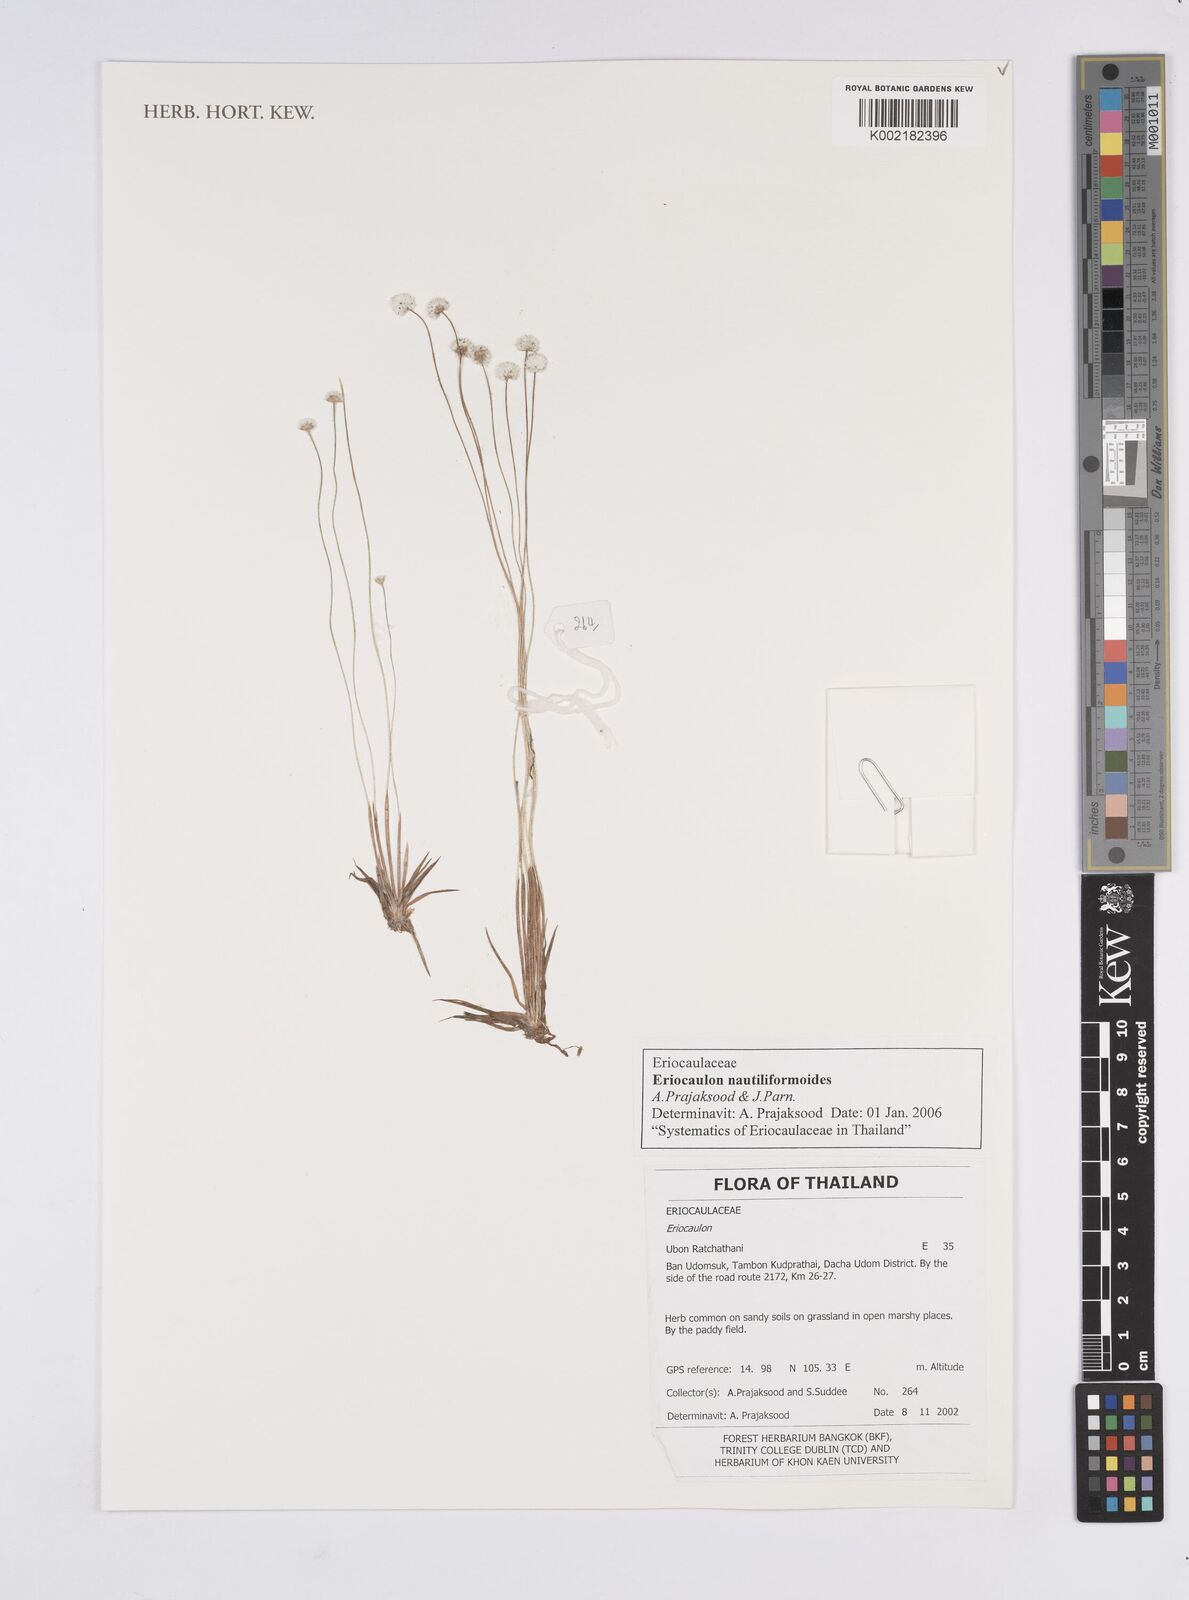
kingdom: Plantae
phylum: Tracheophyta
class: Liliopsida
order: Poales
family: Eriocaulaceae
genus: Eriocaulon
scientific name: Eriocaulon nautiliformoides
